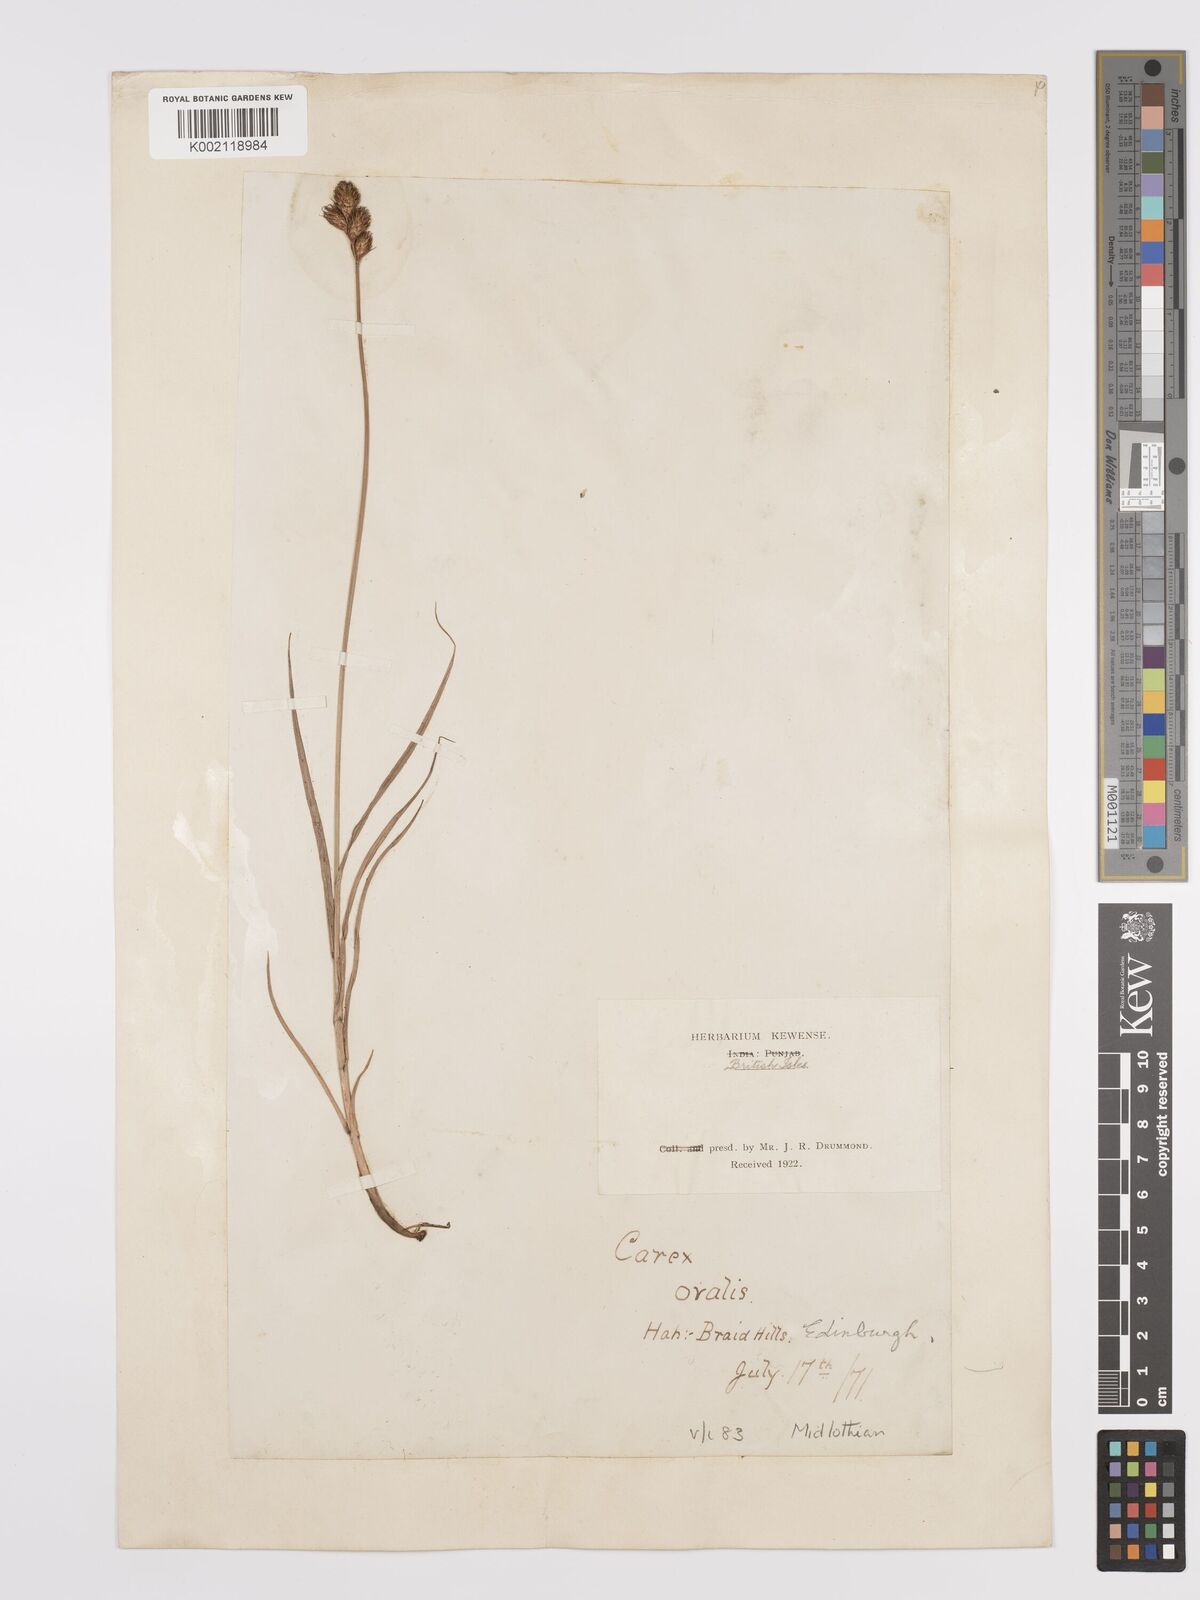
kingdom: Plantae
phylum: Tracheophyta
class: Liliopsida
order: Poales
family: Cyperaceae
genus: Carex
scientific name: Carex leporina
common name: Oval sedge
